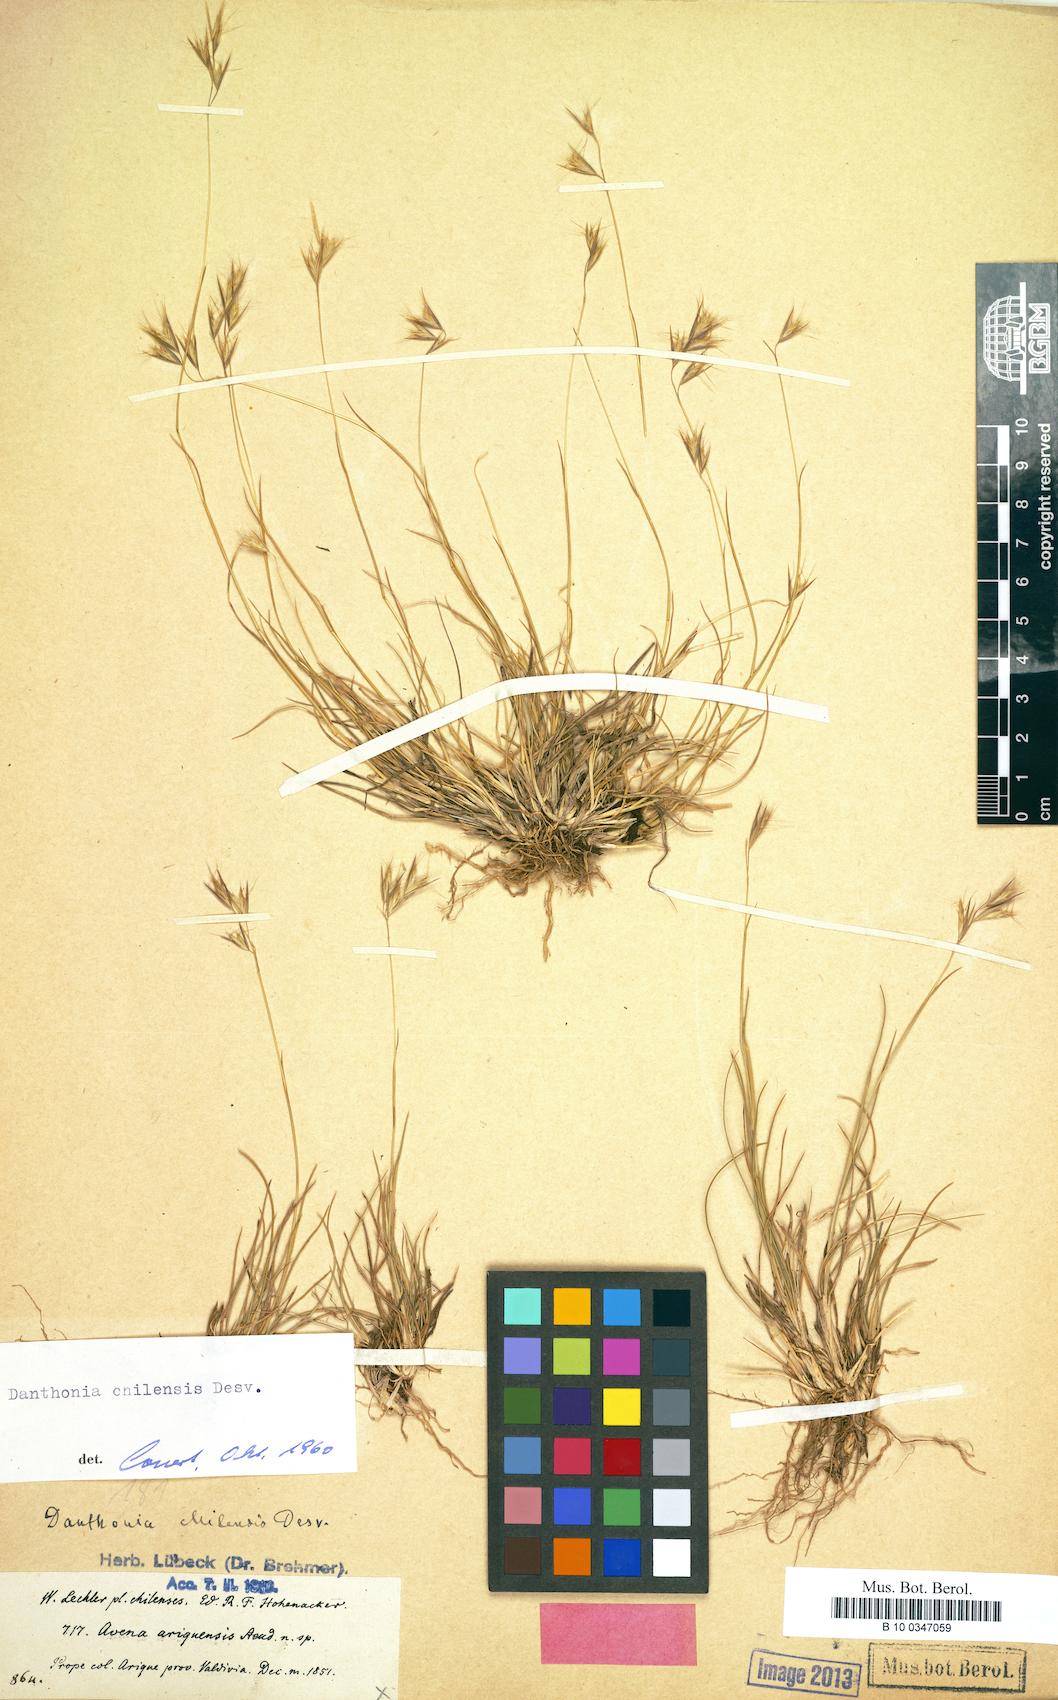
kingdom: Plantae
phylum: Tracheophyta
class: Liliopsida
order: Poales
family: Poaceae
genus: Danthonia
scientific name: Danthonia chilensis
